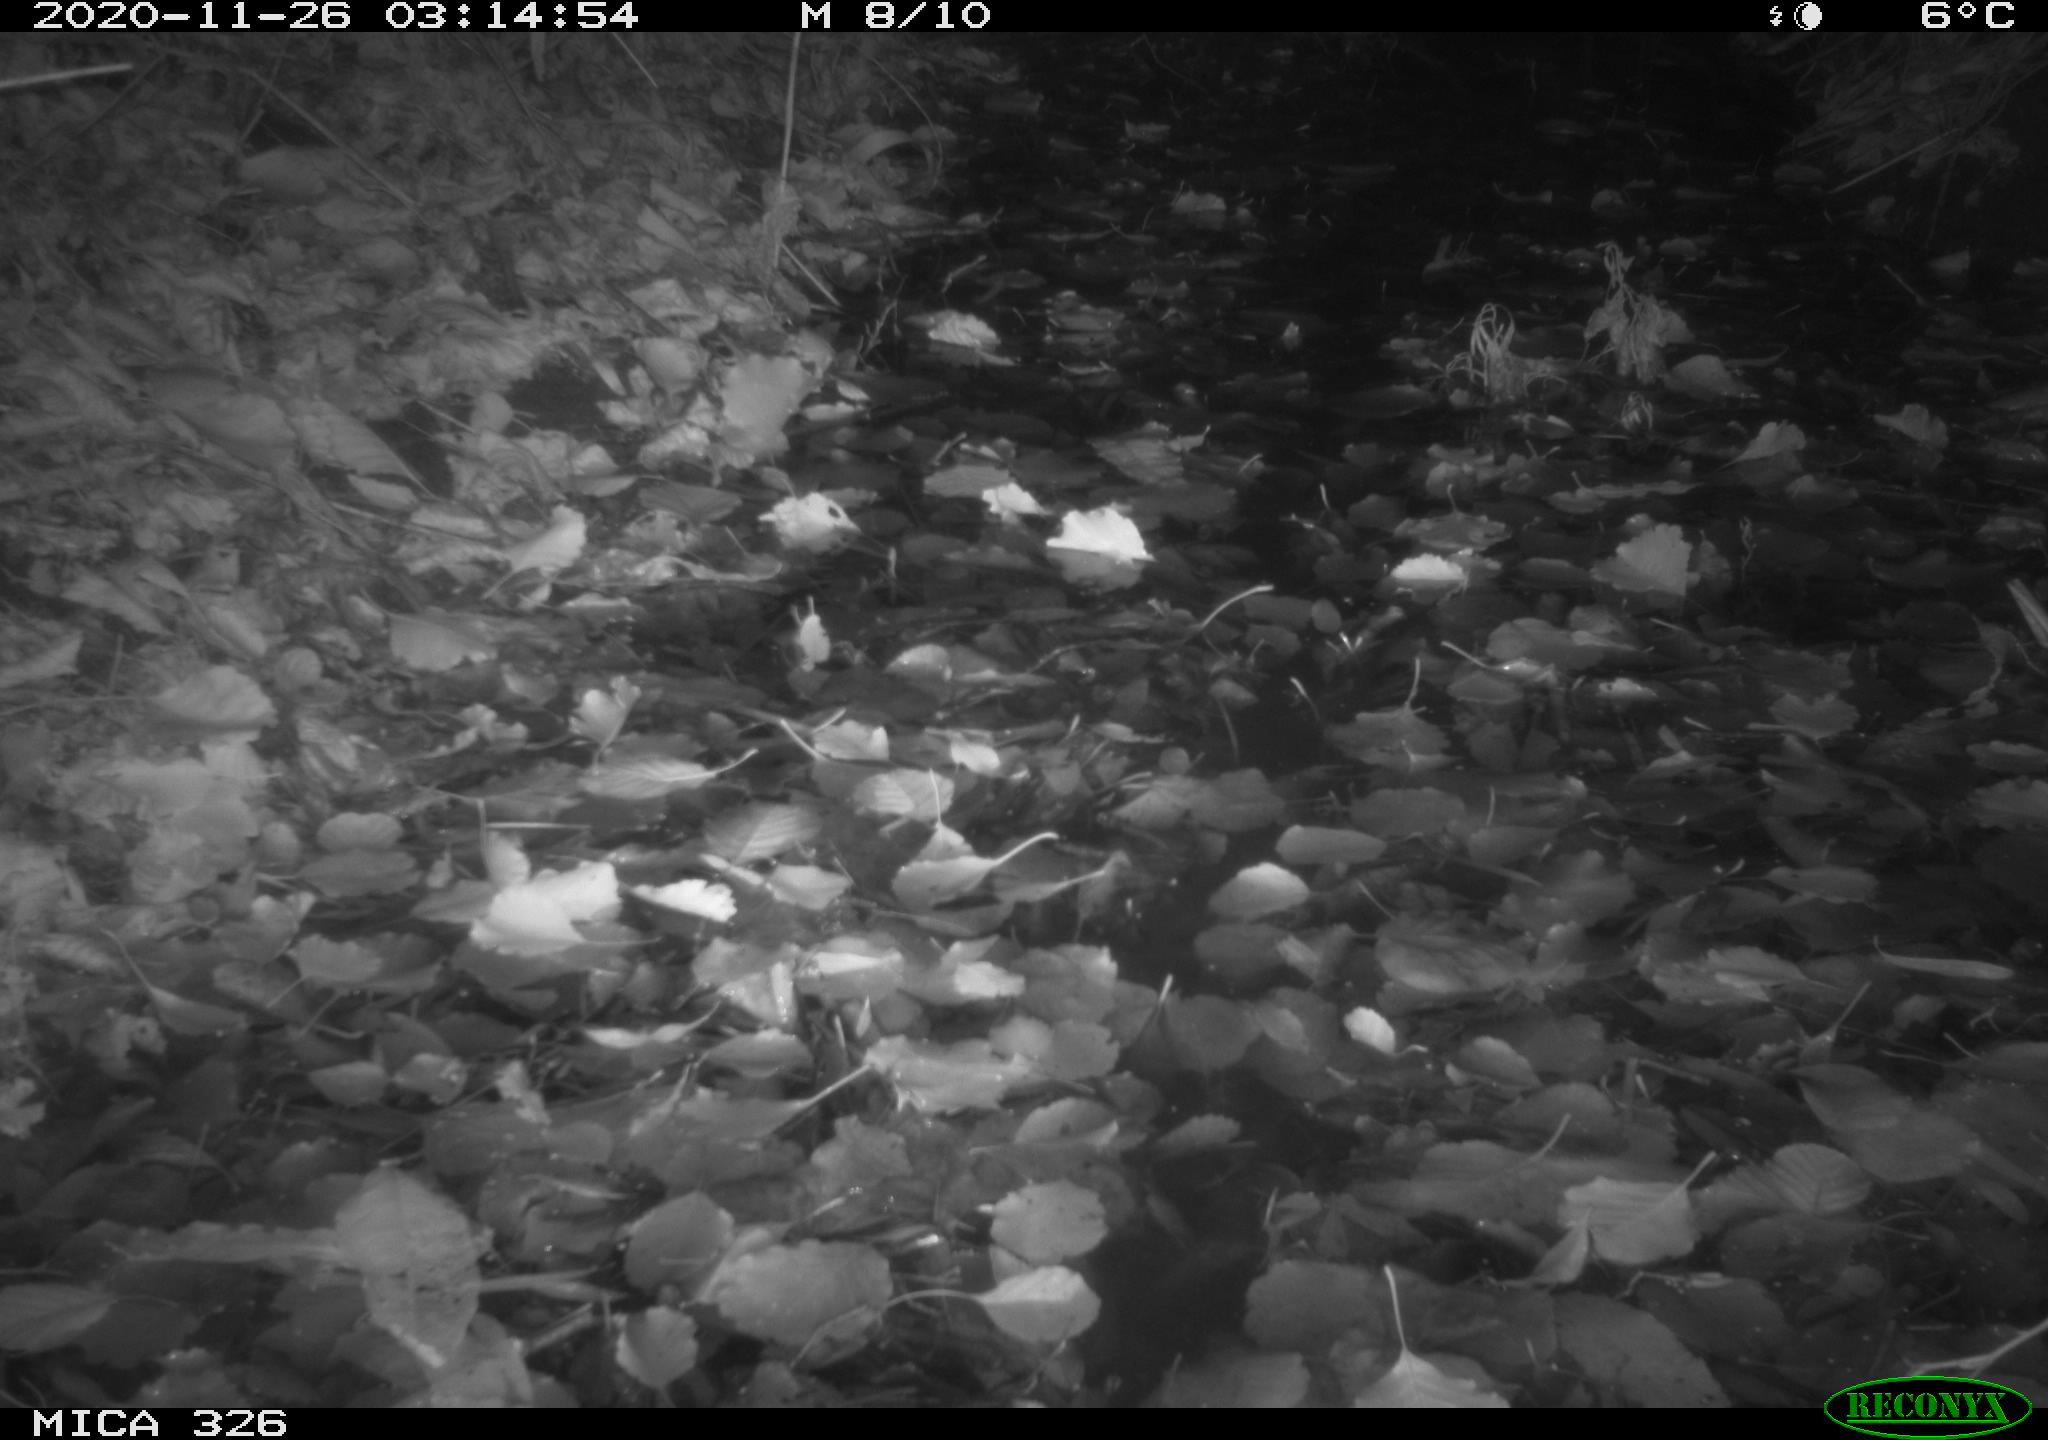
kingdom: Animalia
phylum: Chordata
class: Mammalia
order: Carnivora
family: Mustelidae
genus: Lutra
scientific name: Lutra lutra
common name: European otter
